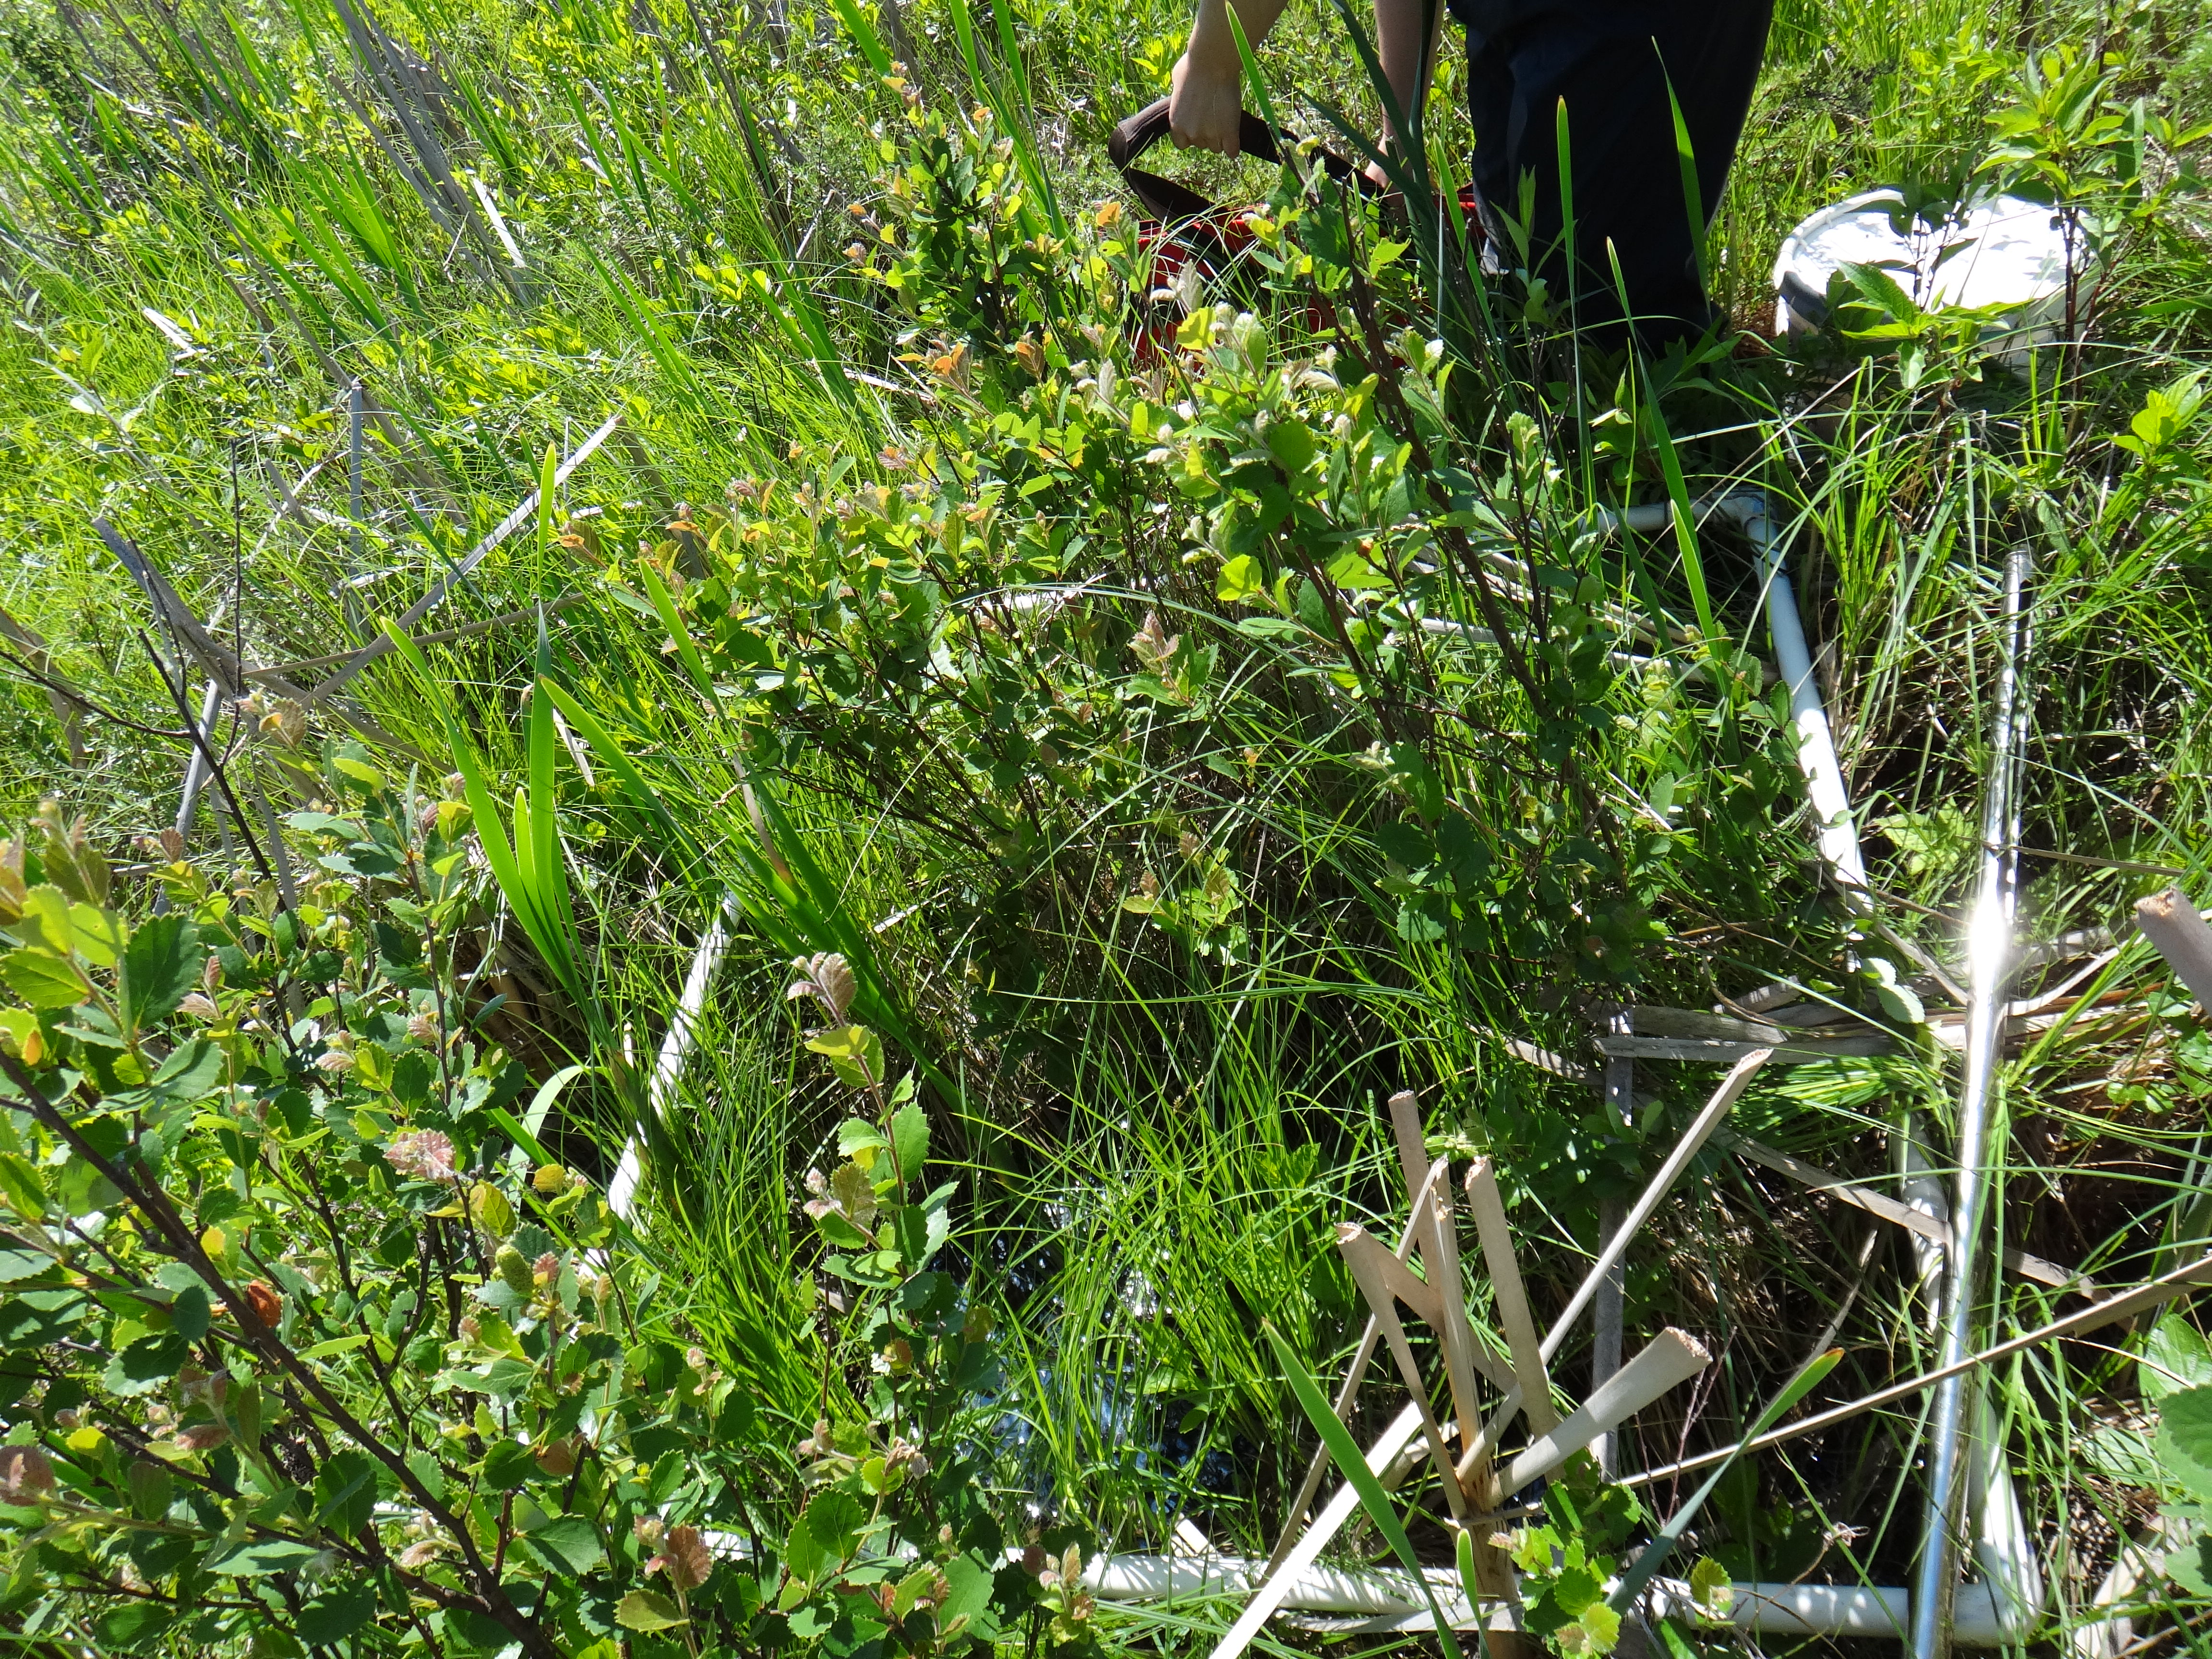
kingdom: Plantae
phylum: Tracheophyta
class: Liliopsida
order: Poales
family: Typhaceae
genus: Typha
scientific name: Typha angustifolia
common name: Lesser bulrush
